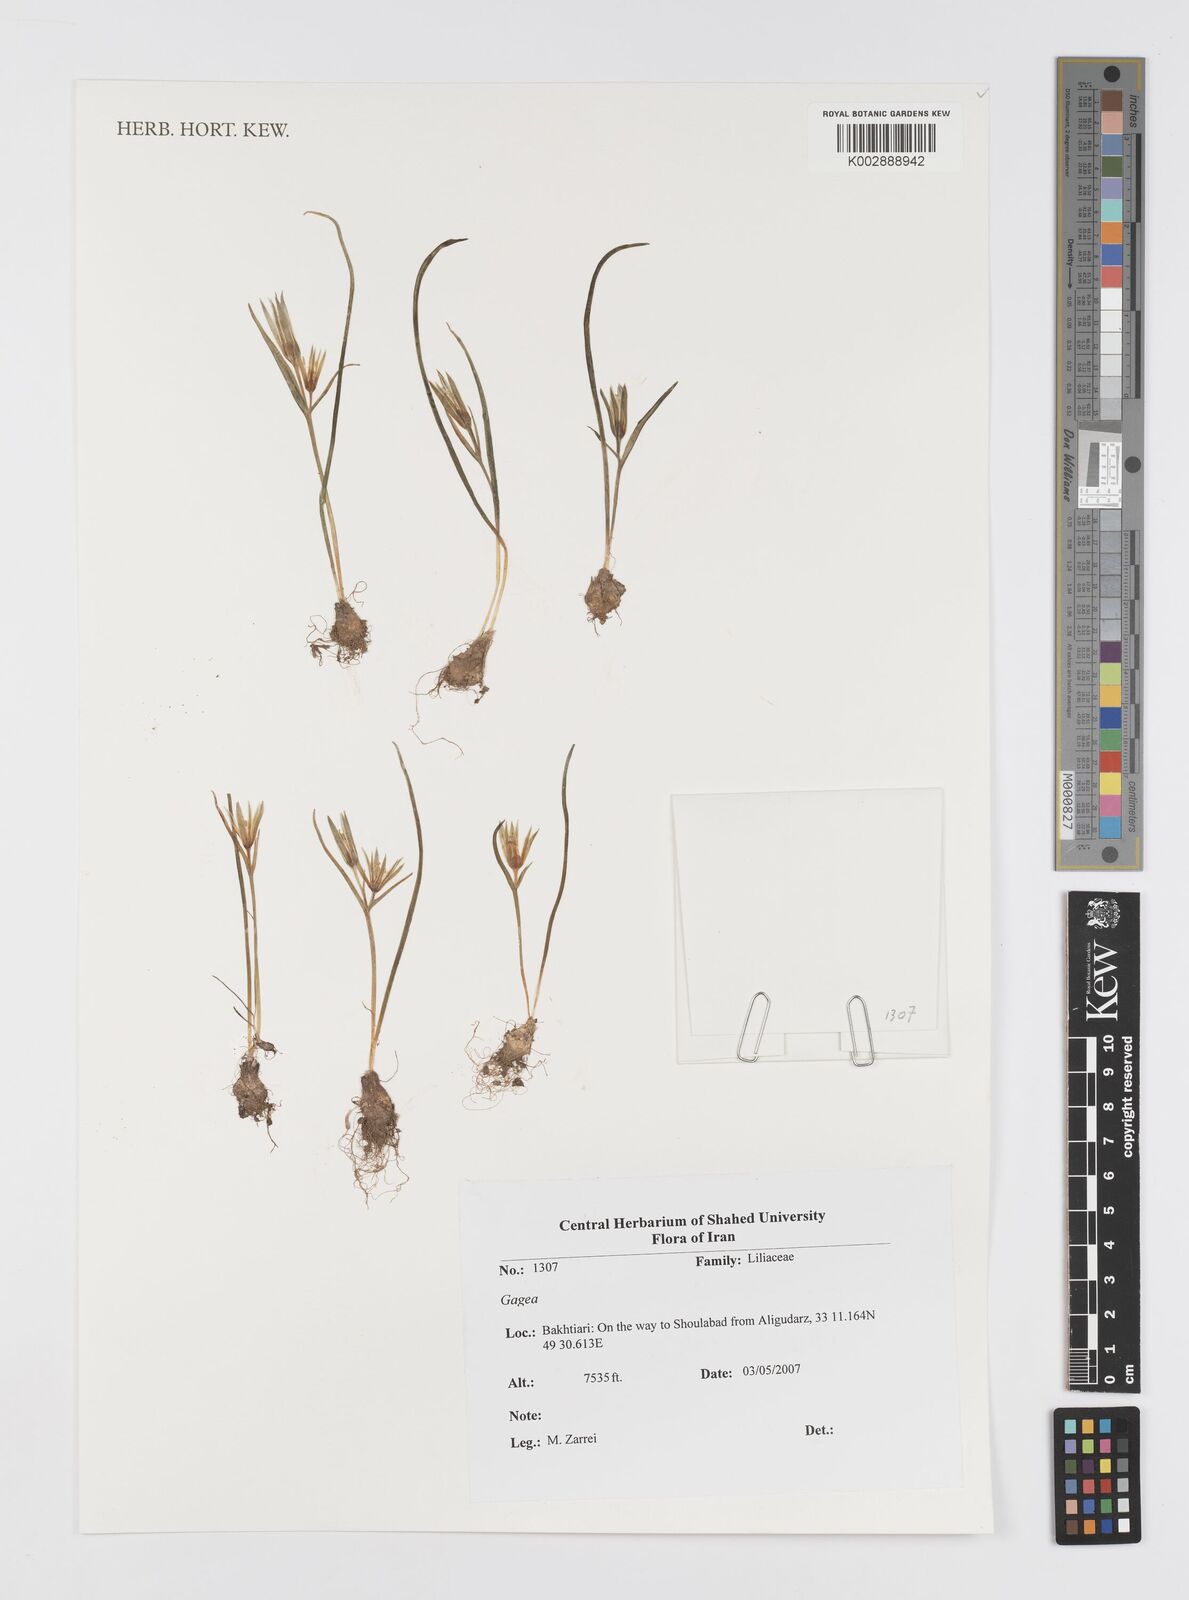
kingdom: Plantae
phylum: Tracheophyta
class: Liliopsida
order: Liliales
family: Liliaceae
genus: Gagea
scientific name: Gagea
